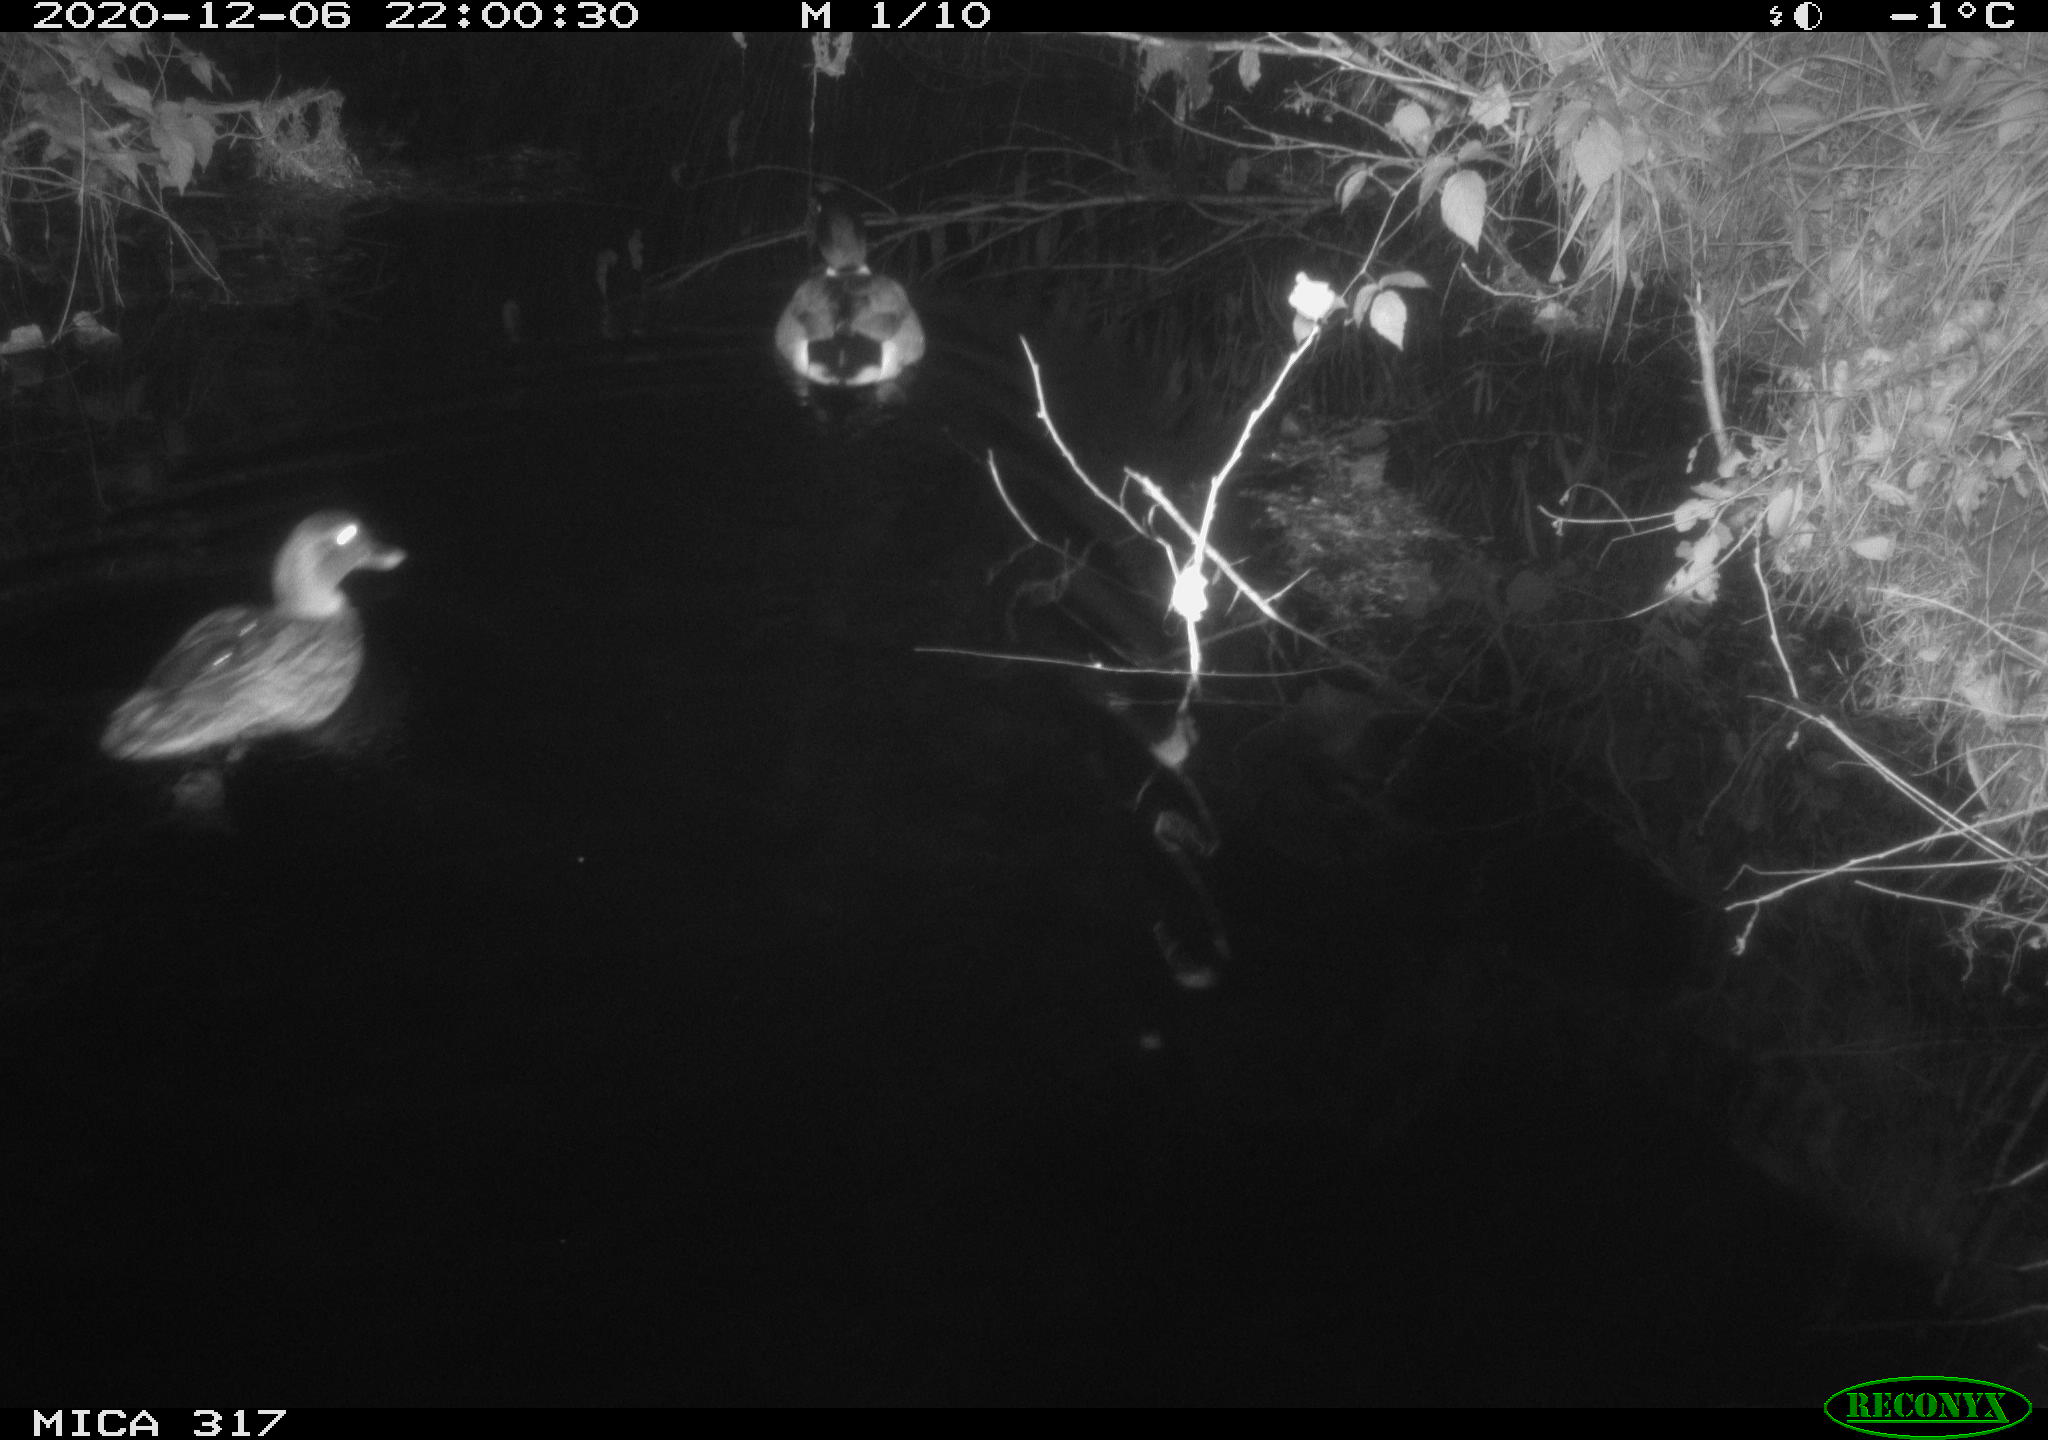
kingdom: Animalia
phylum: Chordata
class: Aves
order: Anseriformes
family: Anatidae
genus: Anas
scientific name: Anas platyrhynchos
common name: Mallard
